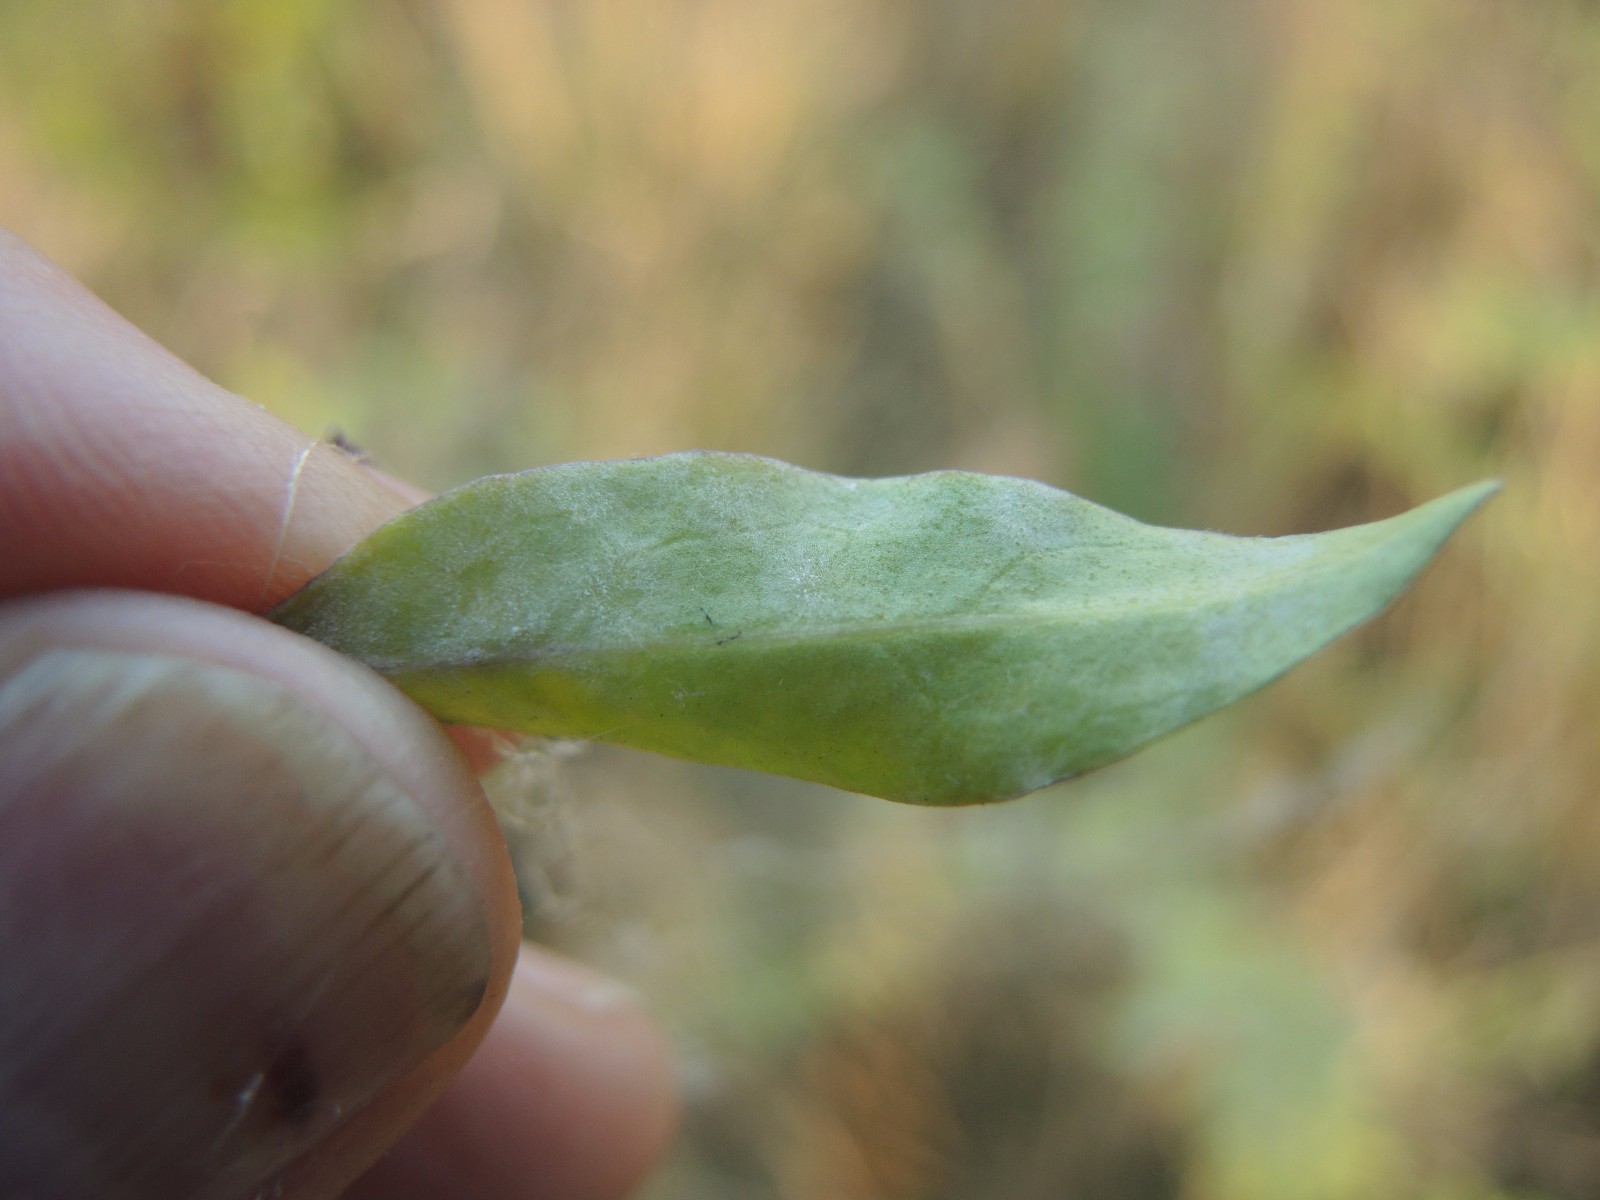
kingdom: Fungi
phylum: Ascomycota
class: Leotiomycetes
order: Helotiales
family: Erysiphaceae
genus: Erysiphe
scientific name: Erysiphe mougeotii
